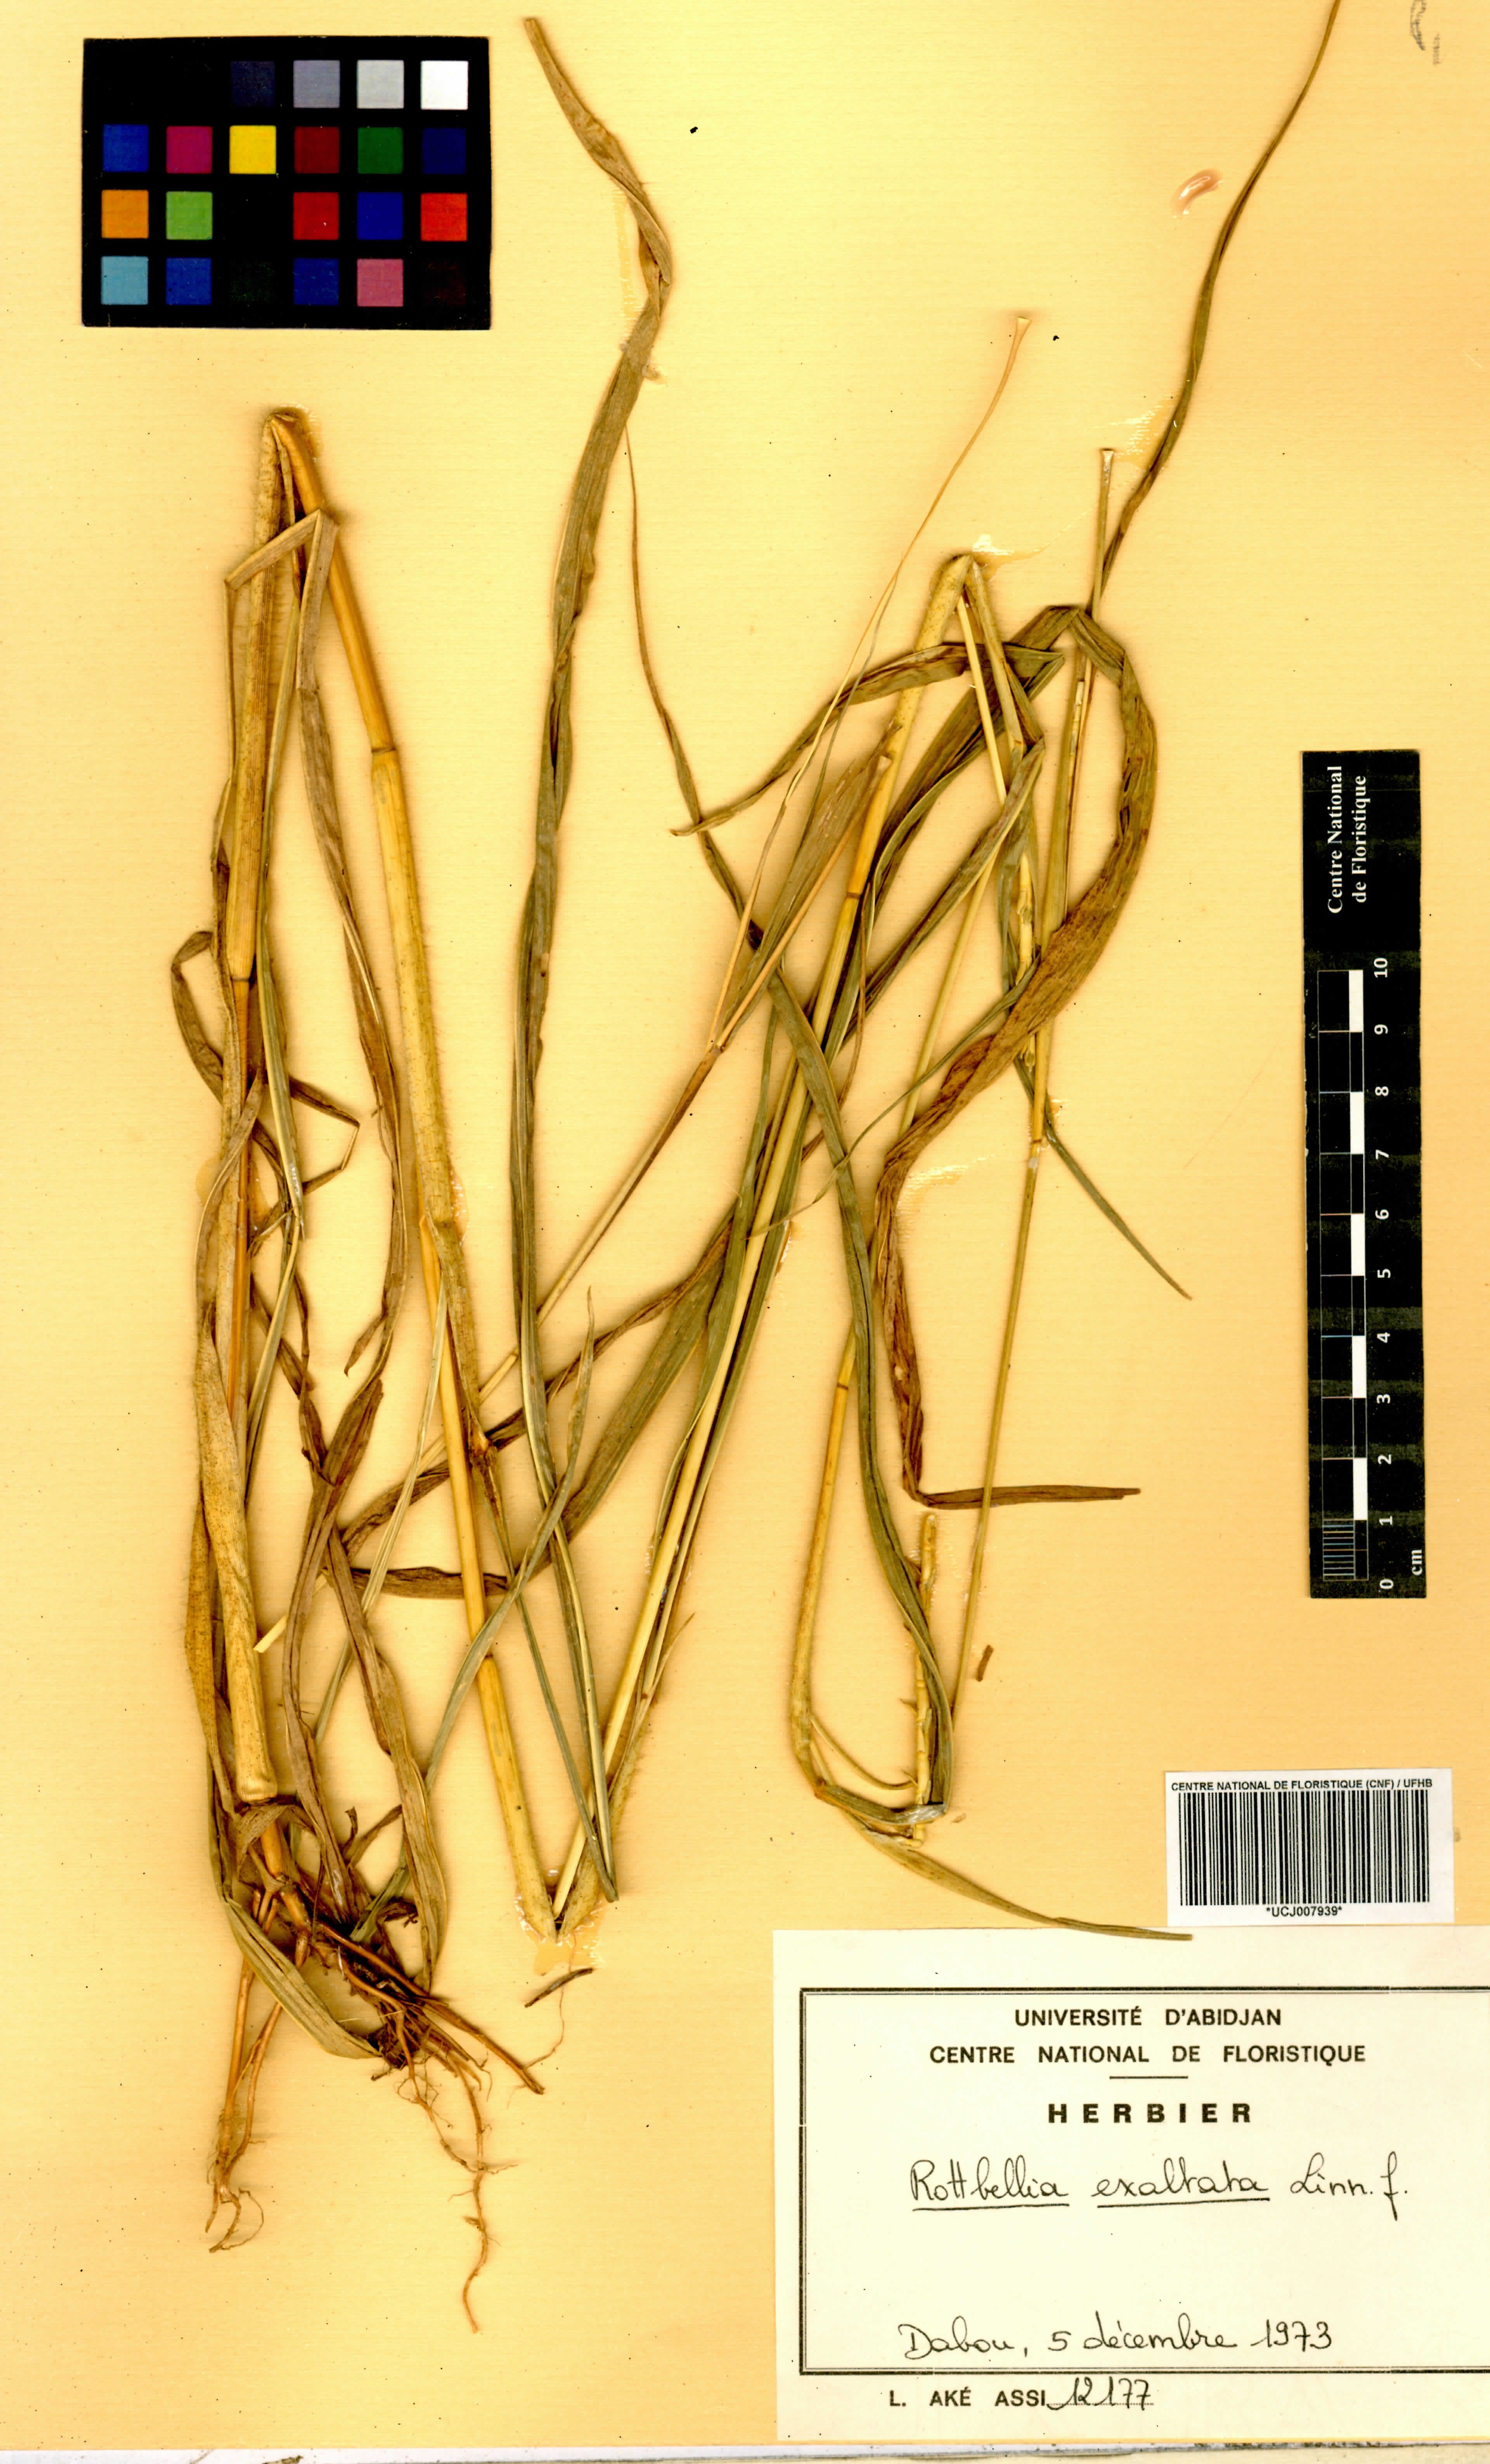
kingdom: Plantae
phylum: Tracheophyta
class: Liliopsida
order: Poales
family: Poaceae
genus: Rottboellia
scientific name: Rottboellia
